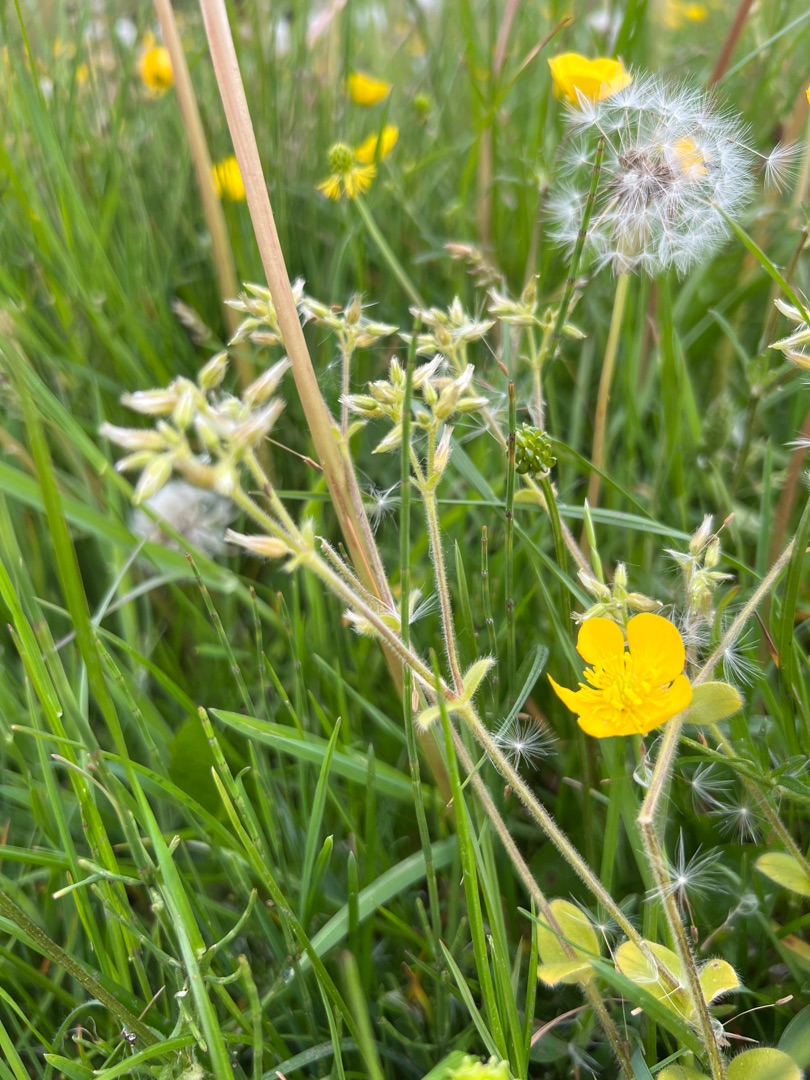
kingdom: Plantae
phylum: Tracheophyta
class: Magnoliopsida
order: Caryophyllales
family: Caryophyllaceae
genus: Cerastium
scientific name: Cerastium glomeratum
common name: Opret hønsetarm
